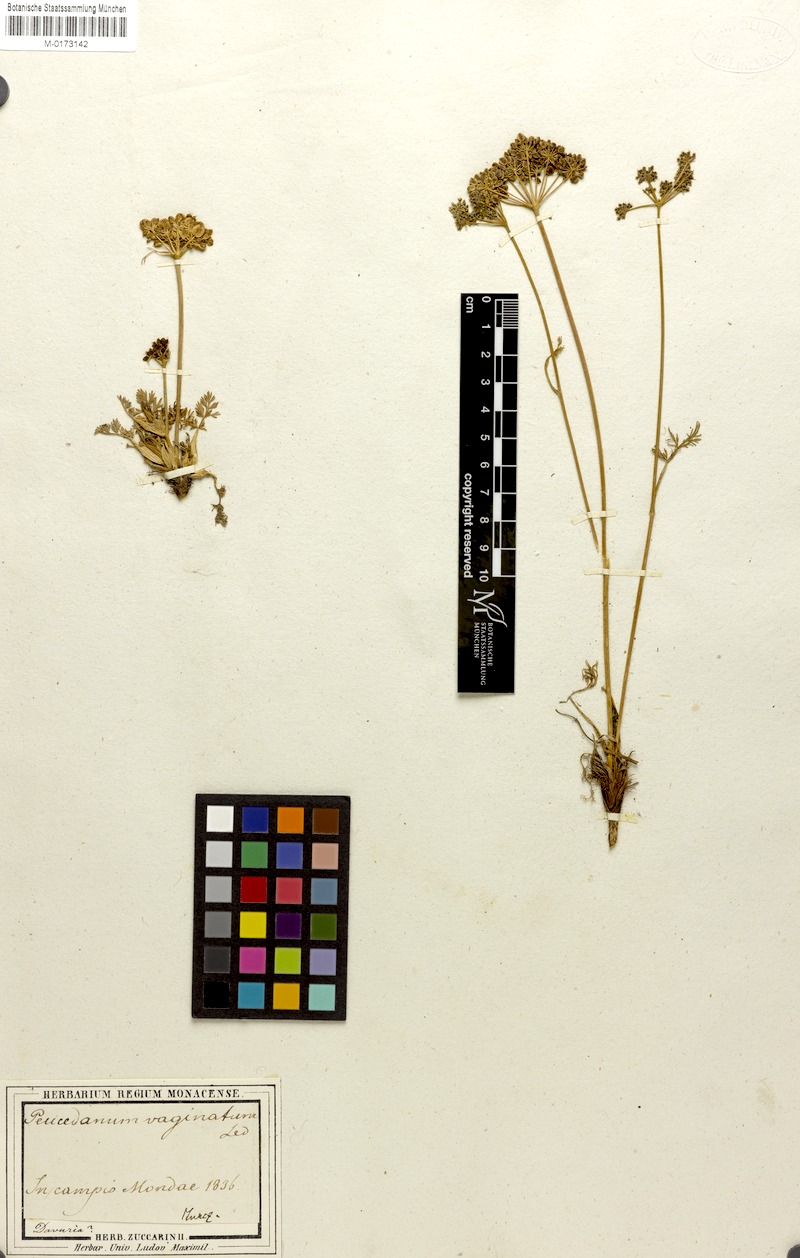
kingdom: Plantae
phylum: Tracheophyta
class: Magnoliopsida
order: Apiales
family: Apiaceae
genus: Peucedanum
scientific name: Peucedanum vaginatum
